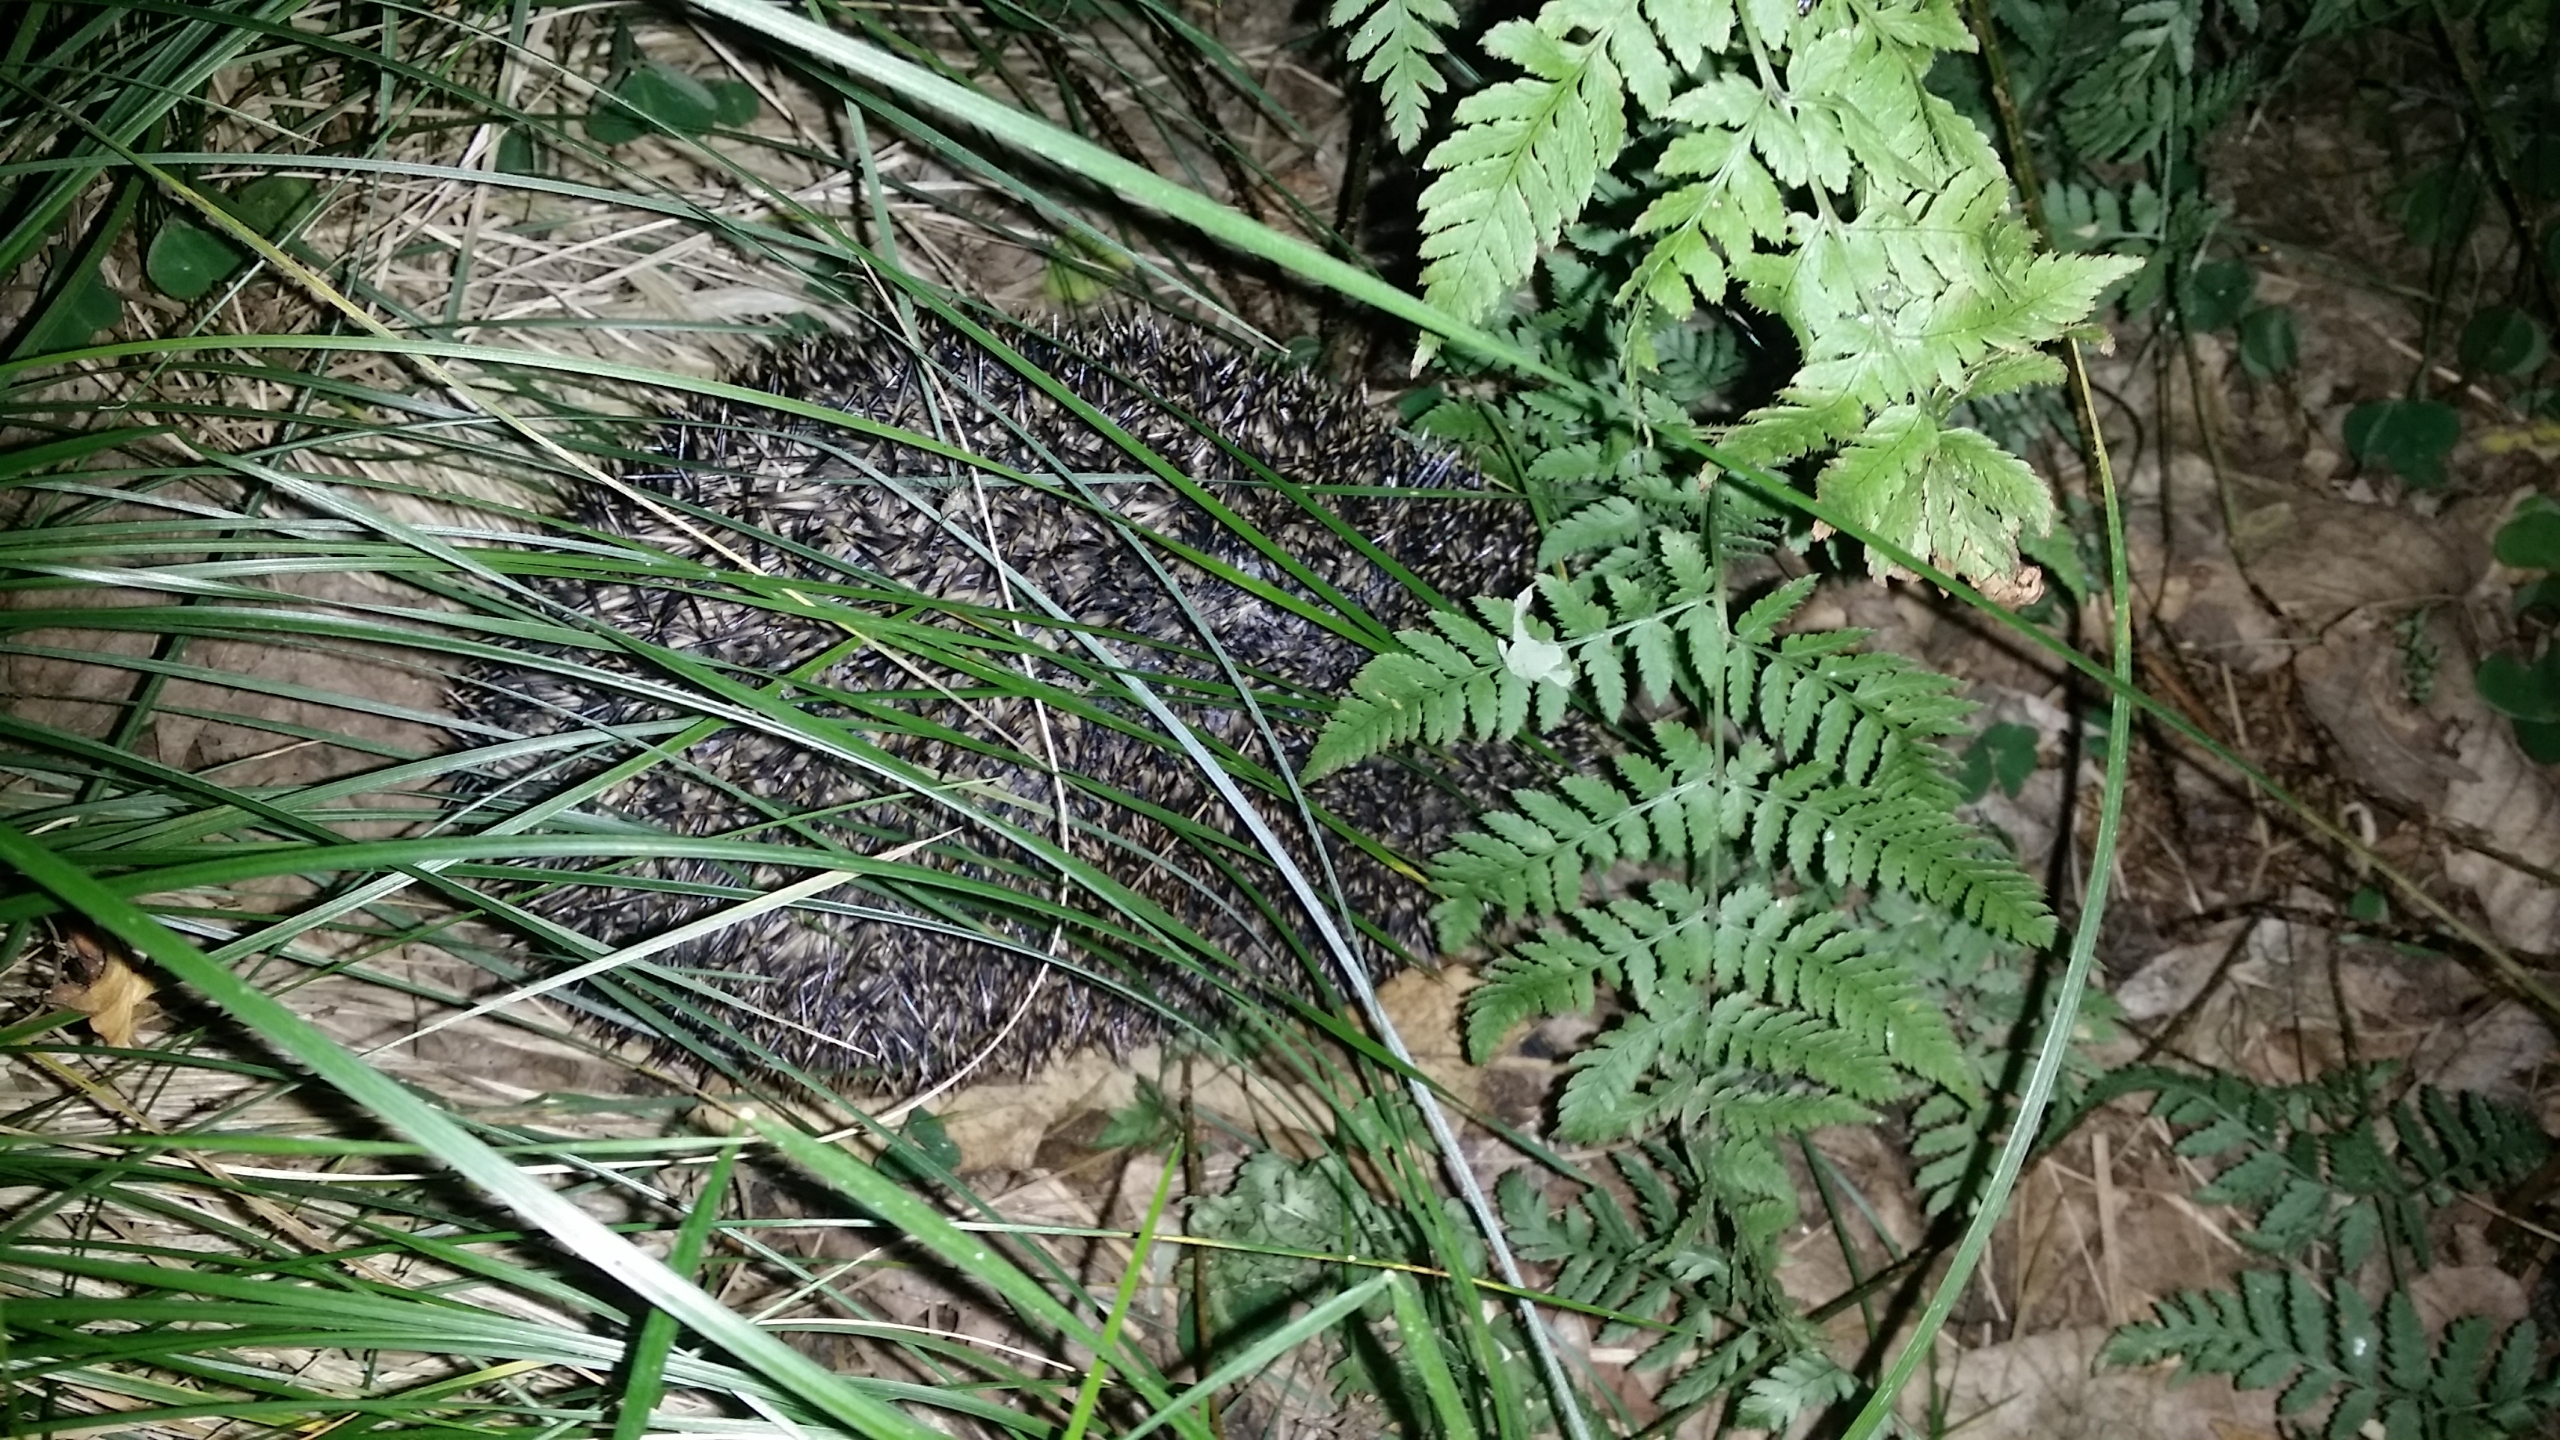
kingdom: Animalia
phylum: Chordata
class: Mammalia
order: Erinaceomorpha
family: Erinaceidae
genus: Erinaceus
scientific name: Erinaceus europaeus
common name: Pindsvin
